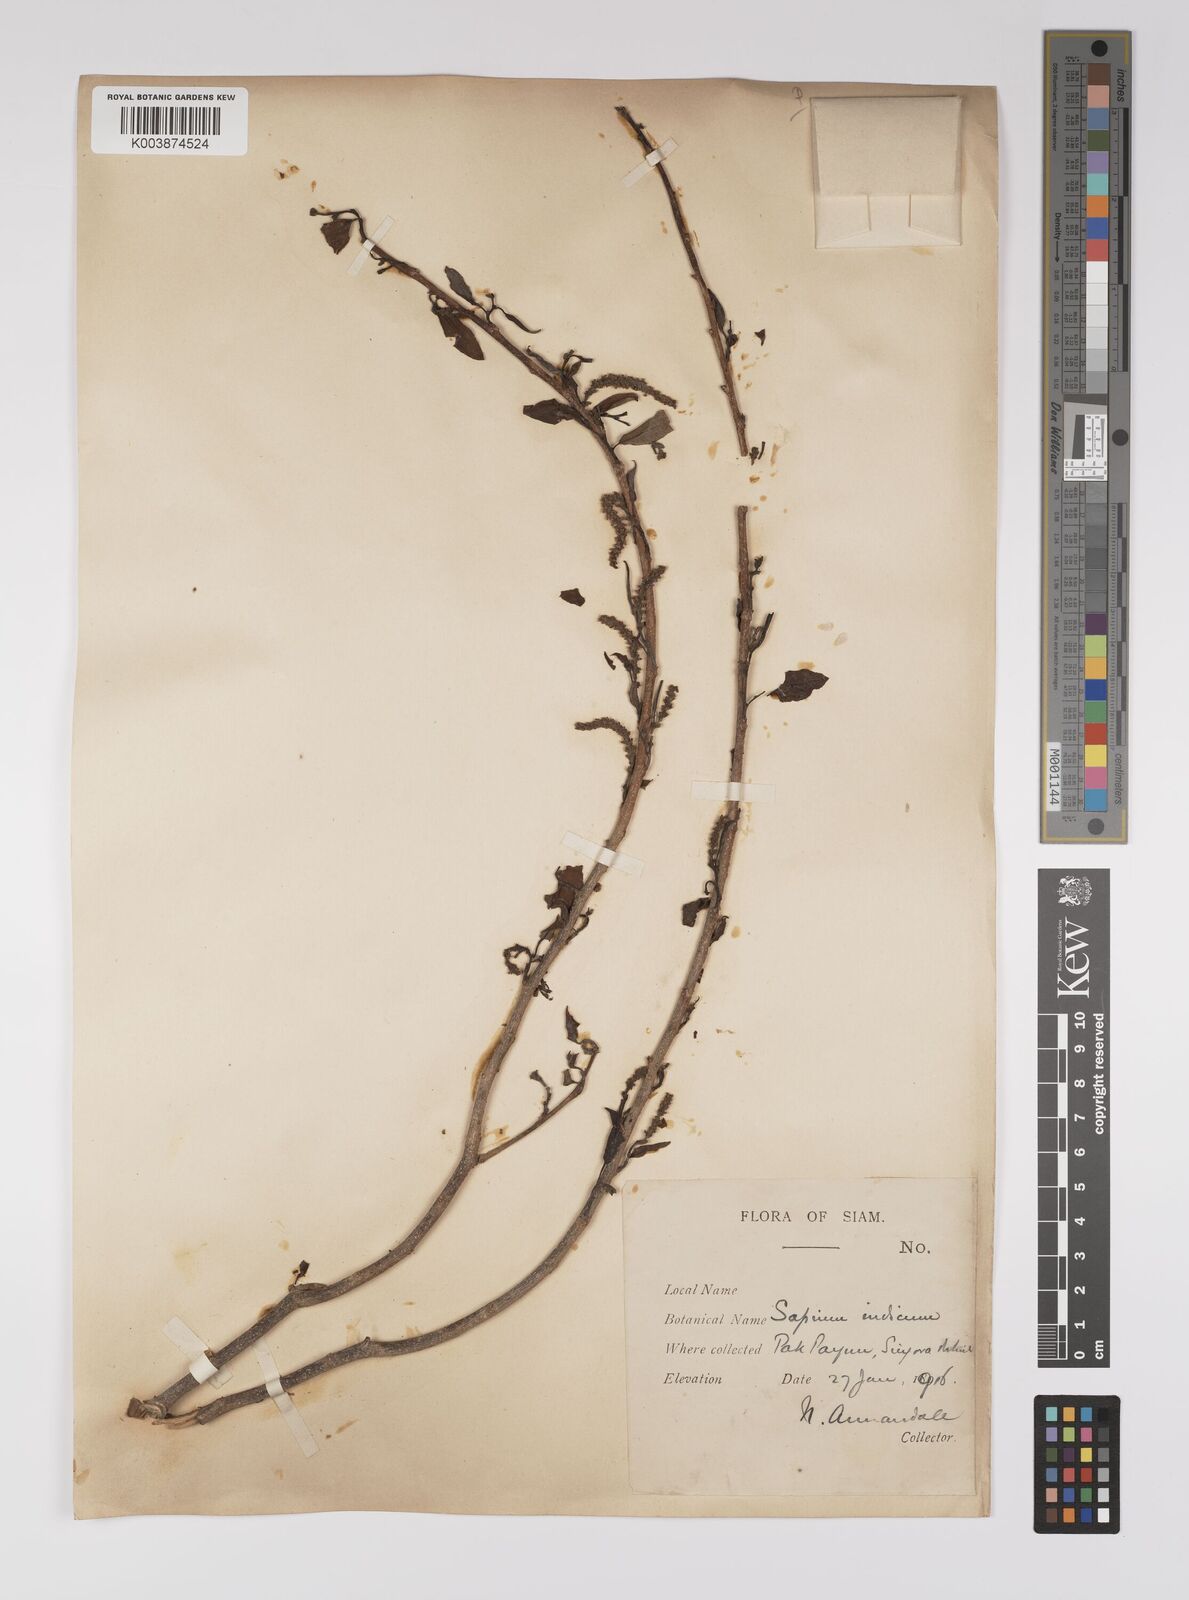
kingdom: Plantae
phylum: Tracheophyta
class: Magnoliopsida
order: Malpighiales
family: Euphorbiaceae
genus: Shirakiopsis
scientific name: Shirakiopsis indica
